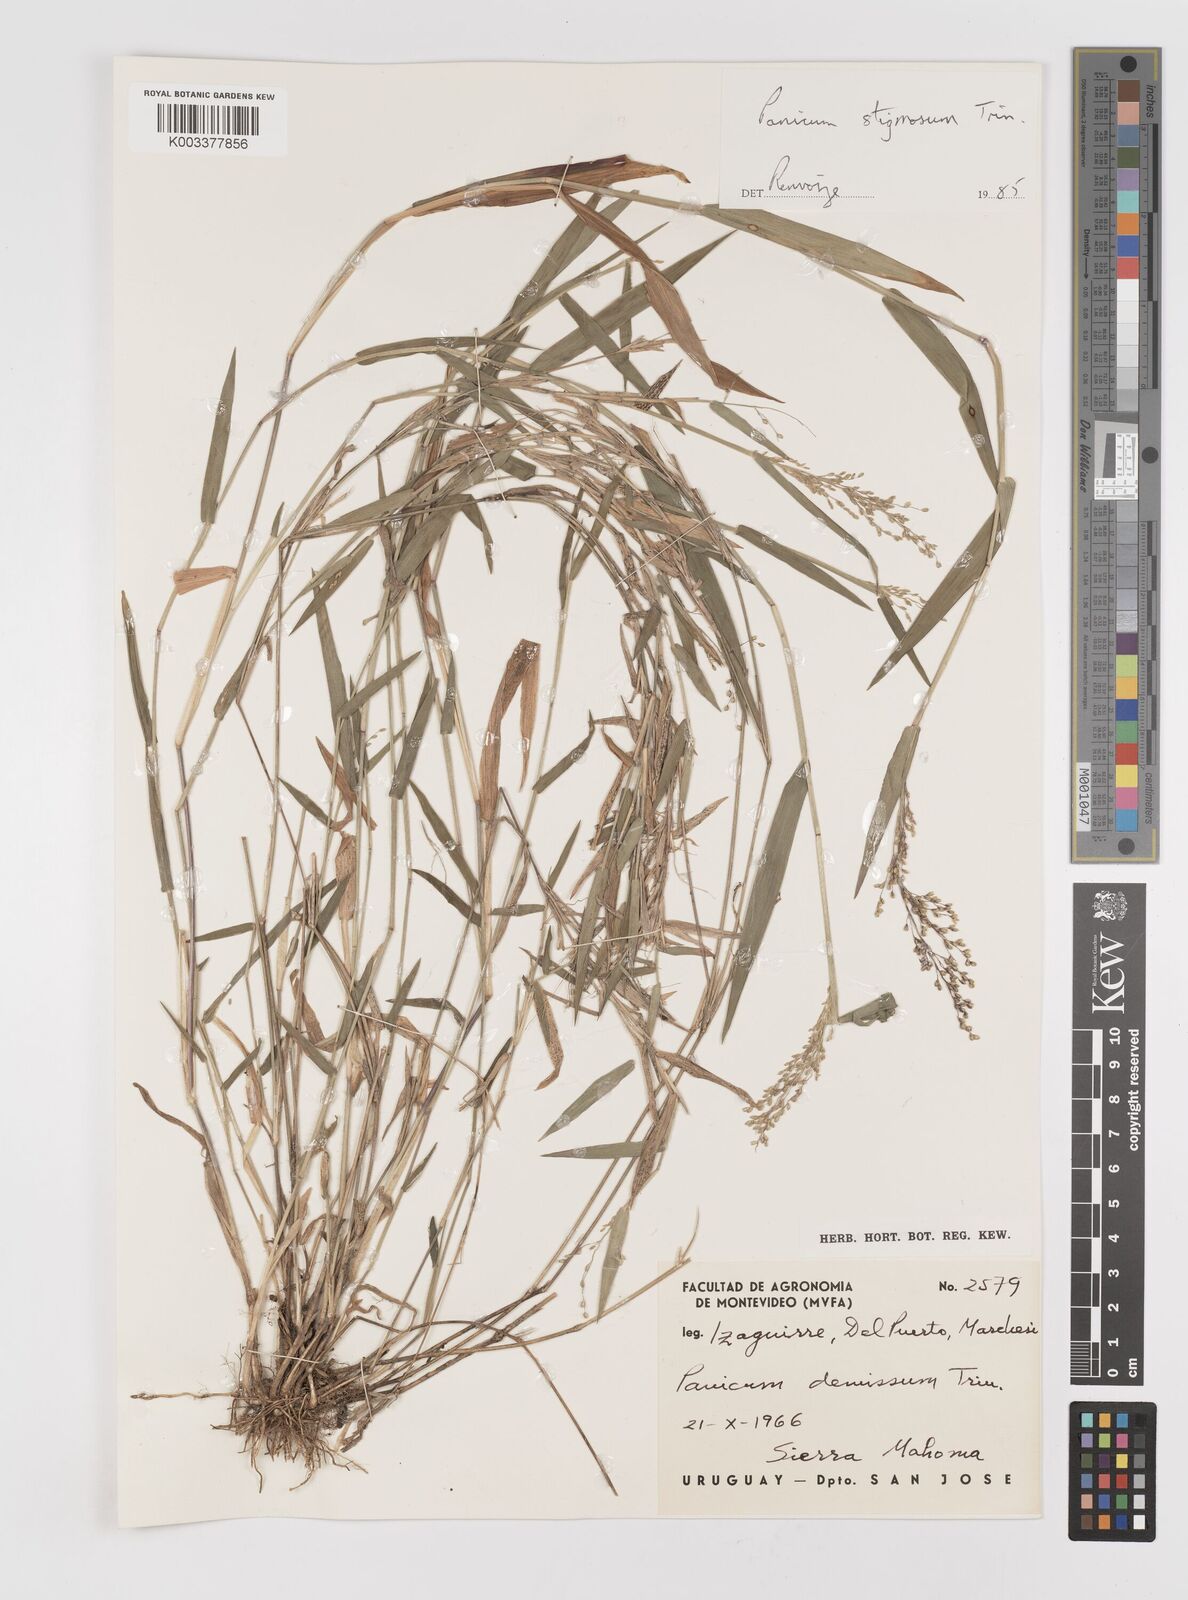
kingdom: Plantae
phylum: Tracheophyta
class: Liliopsida
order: Poales
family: Poaceae
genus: Dichanthelium
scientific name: Dichanthelium stigmosum
